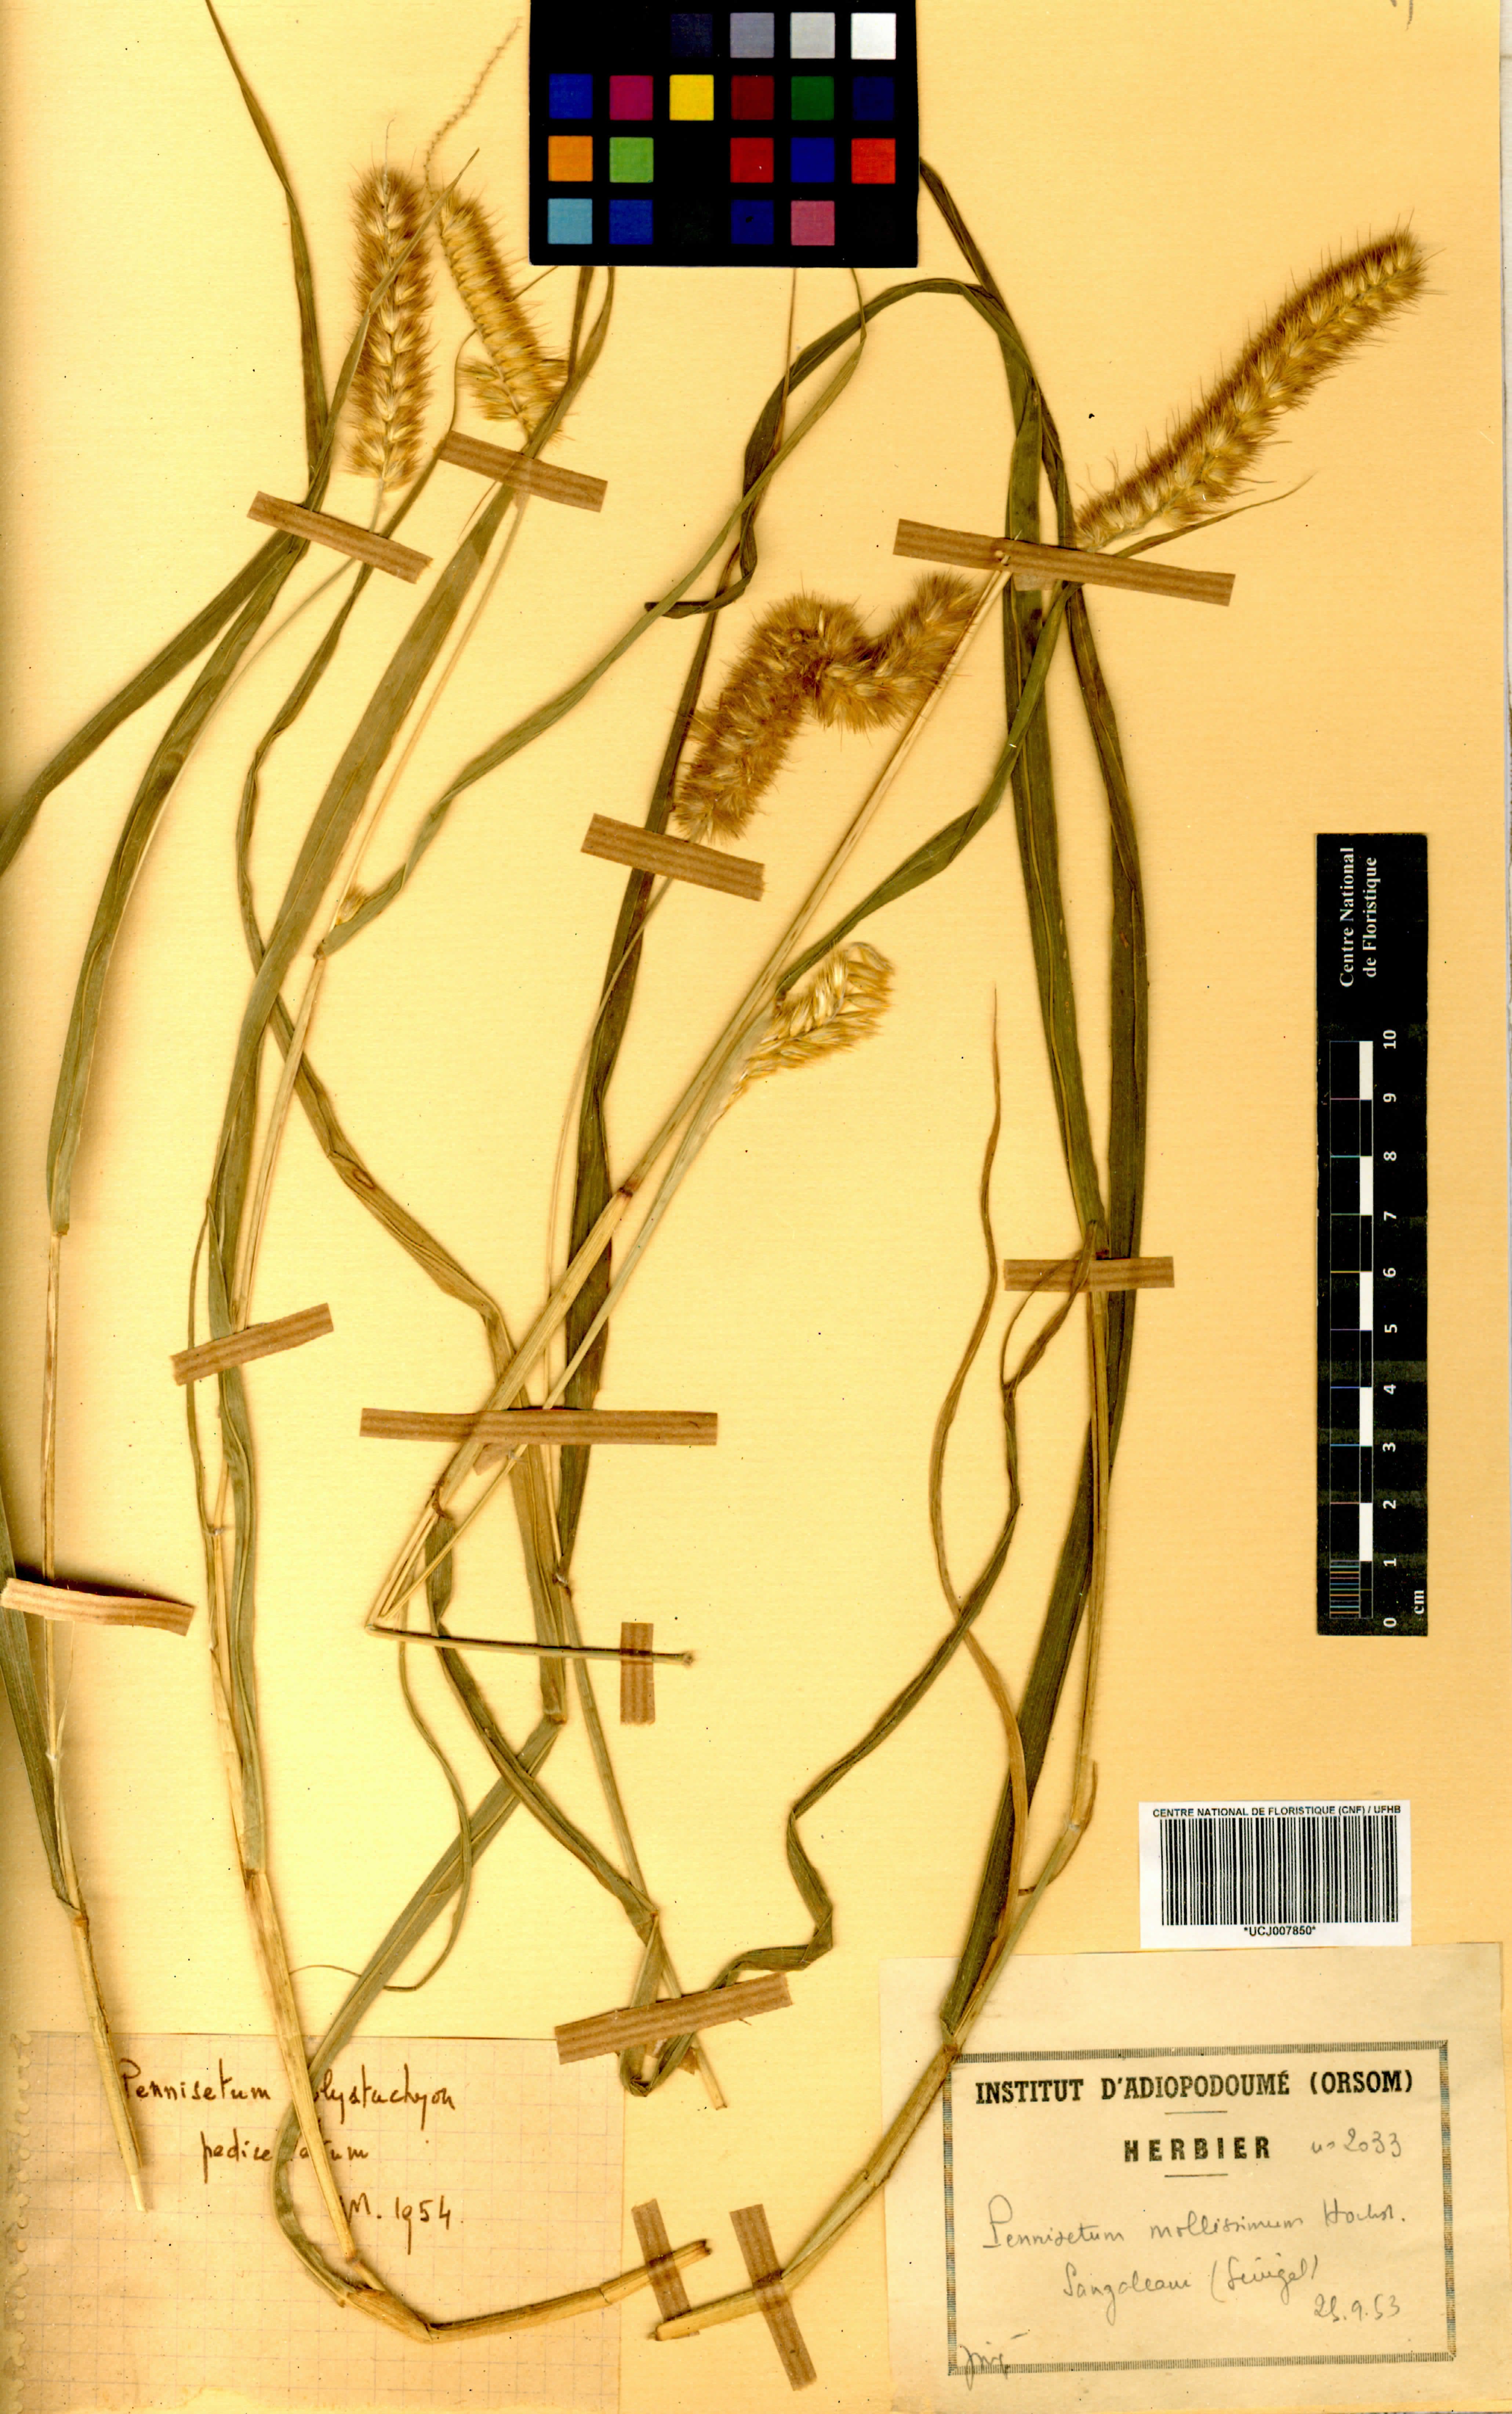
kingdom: Plantae
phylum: Tracheophyta
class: Liliopsida
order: Poales
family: Poaceae
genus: Cenchrus
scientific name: Cenchrus violaceus
